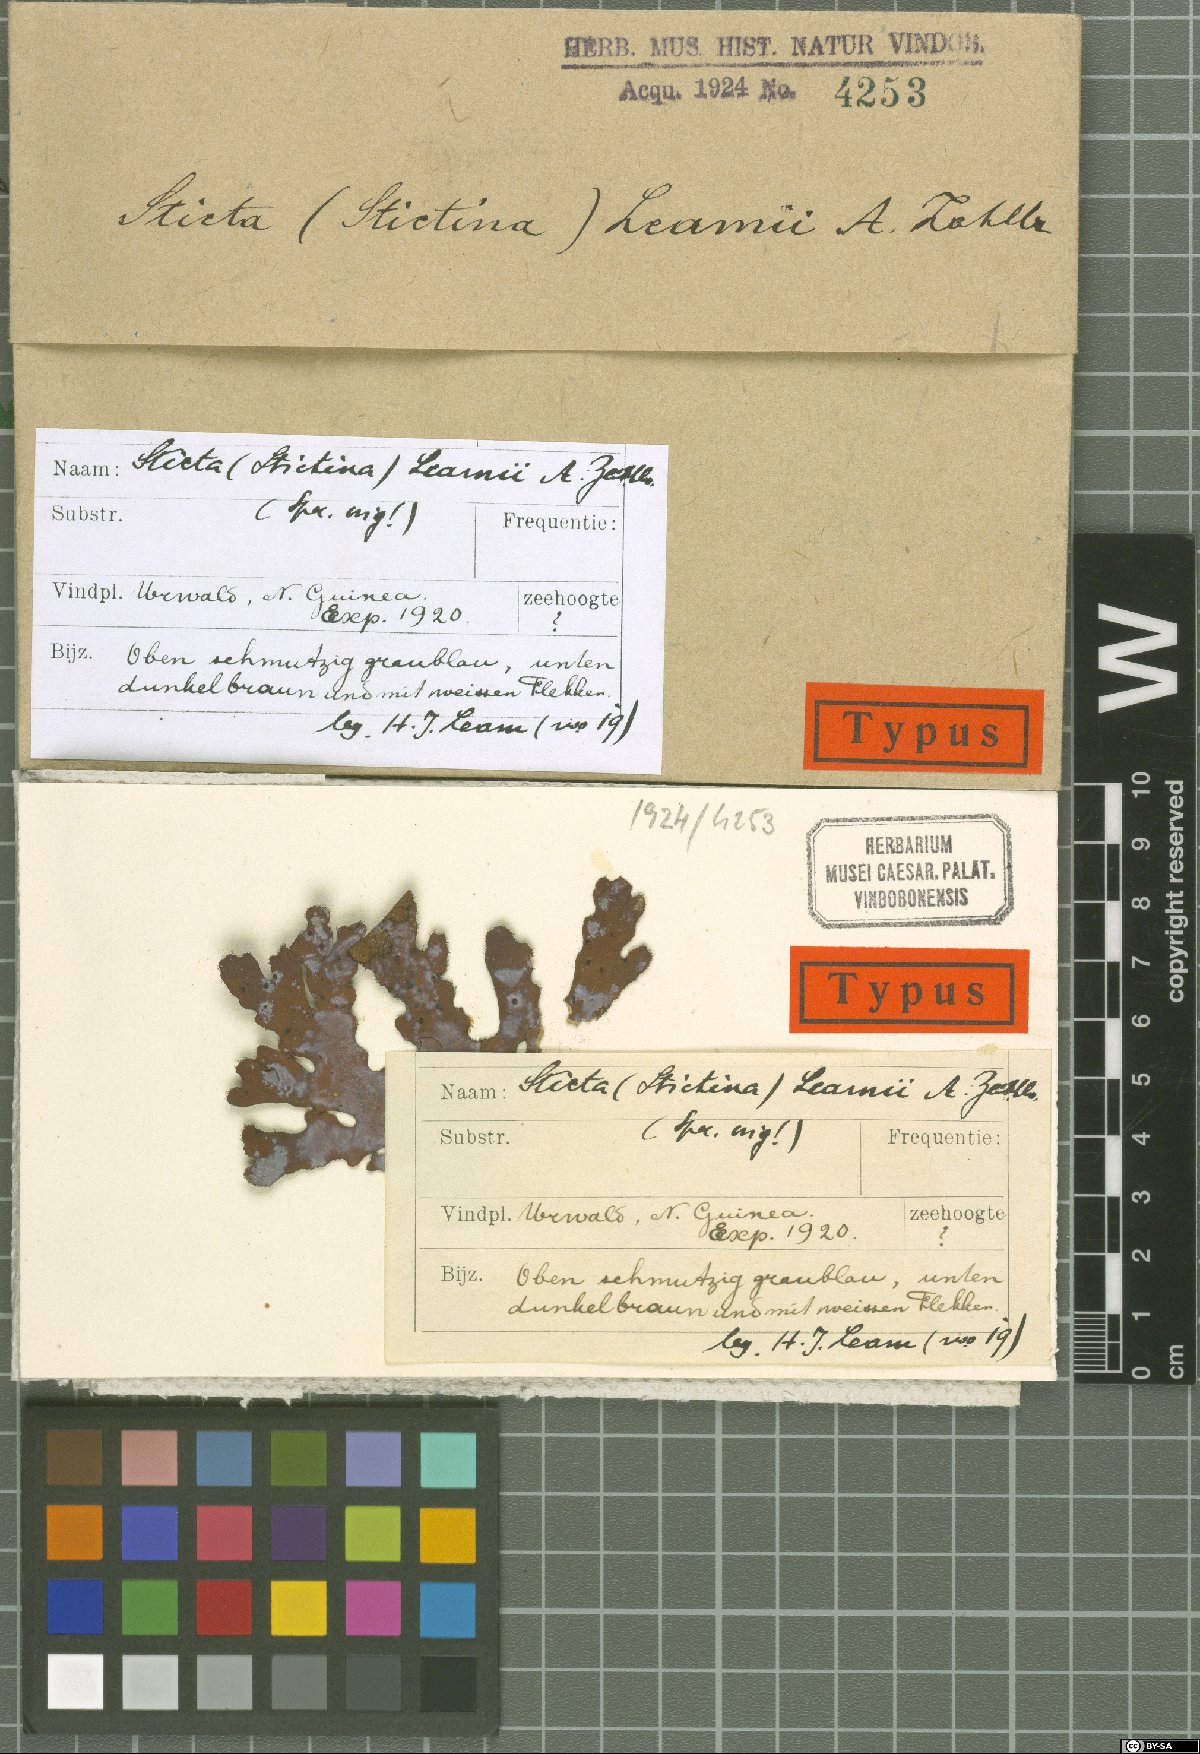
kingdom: Fungi
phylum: Ascomycota
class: Lecanoromycetes
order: Peltigerales
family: Lobariaceae
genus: Sticta
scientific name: Sticta
